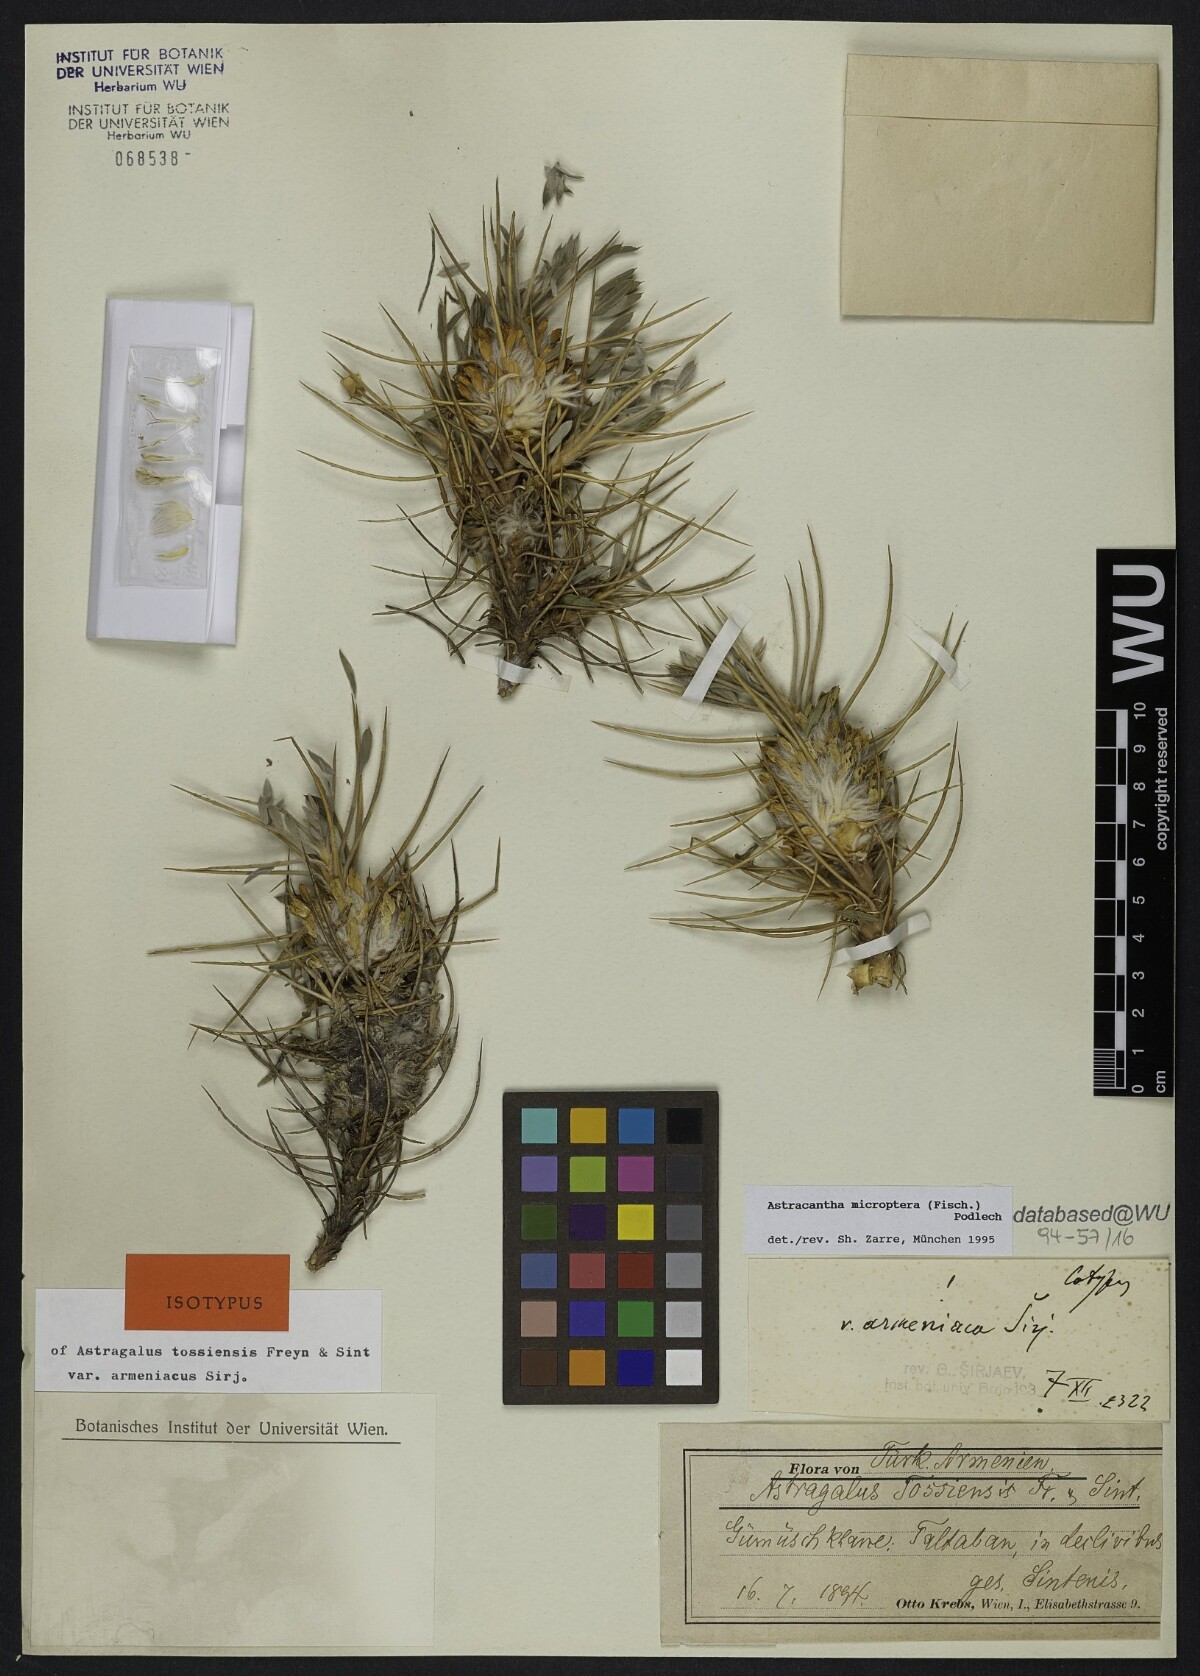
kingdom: Plantae
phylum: Tracheophyta
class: Magnoliopsida
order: Fabales
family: Fabaceae
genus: Astragalus
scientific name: Astragalus micropterus
